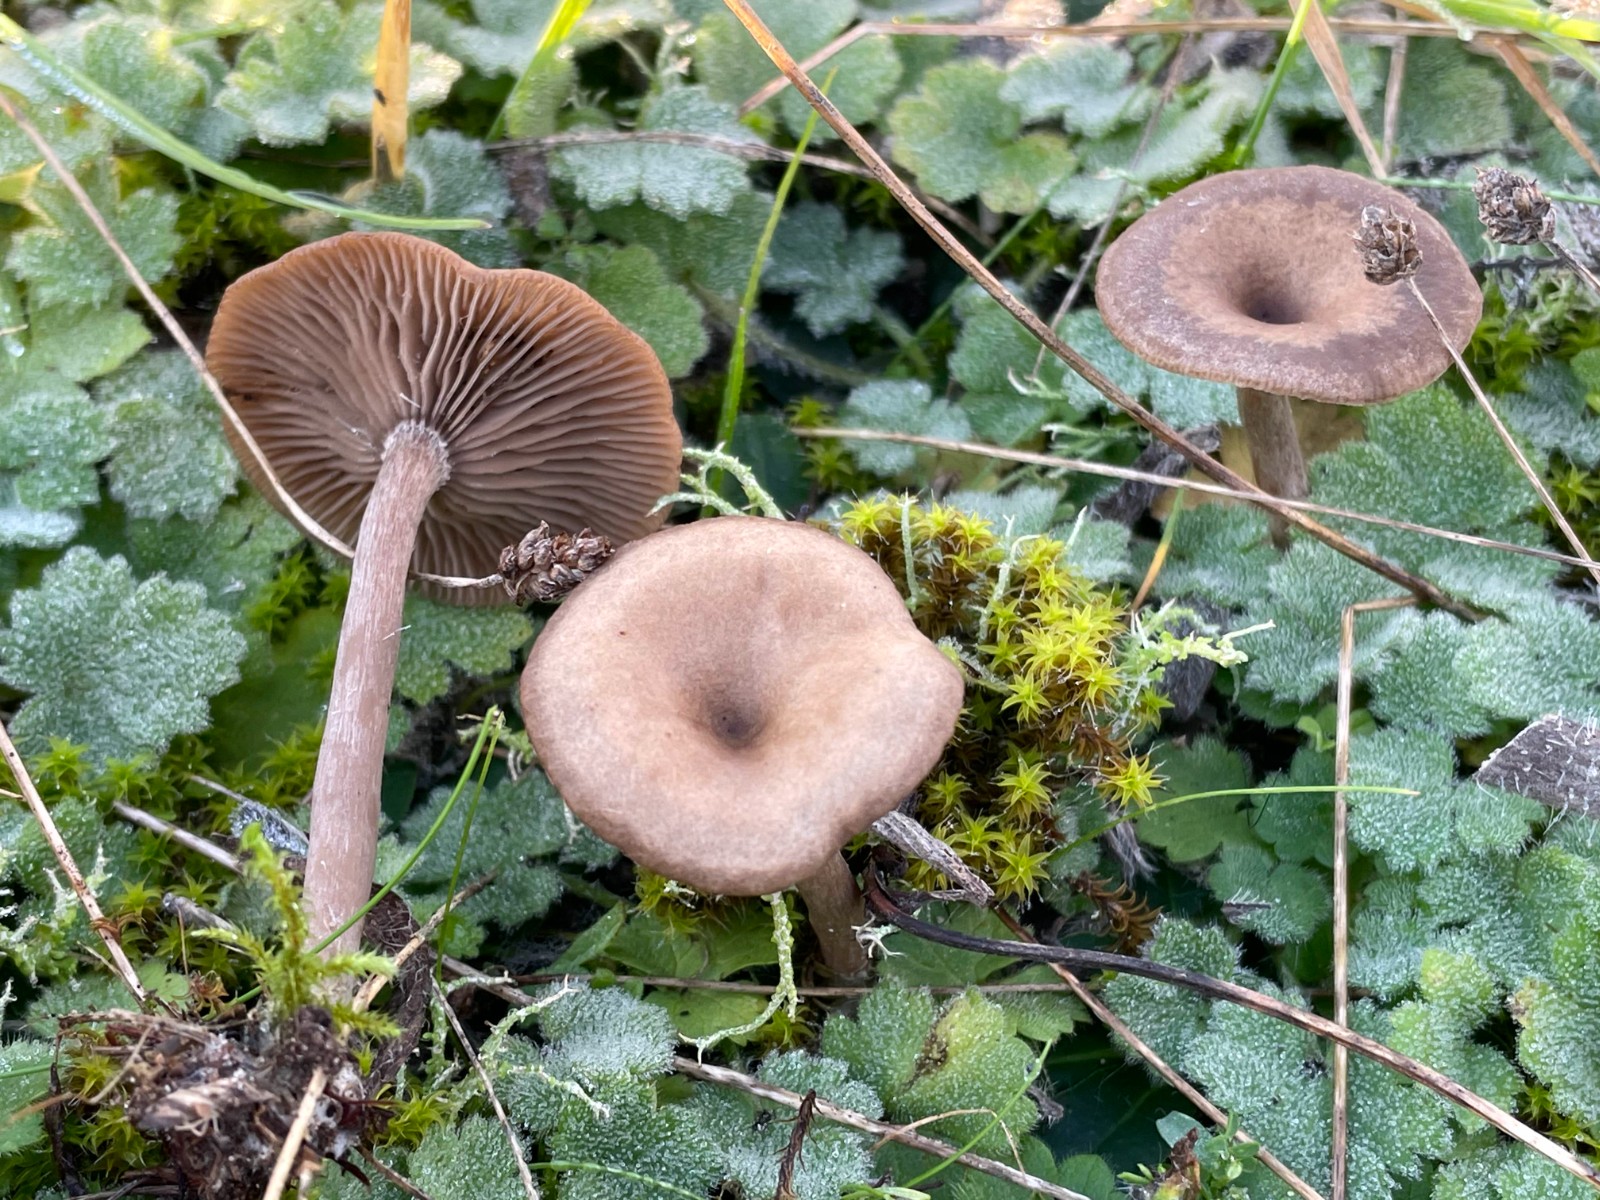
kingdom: Fungi
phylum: Basidiomycota
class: Agaricomycetes
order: Agaricales
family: Pseudoclitocybaceae
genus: Pseudoclitocybe
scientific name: Pseudoclitocybe expallens
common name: lille bægertragthat
